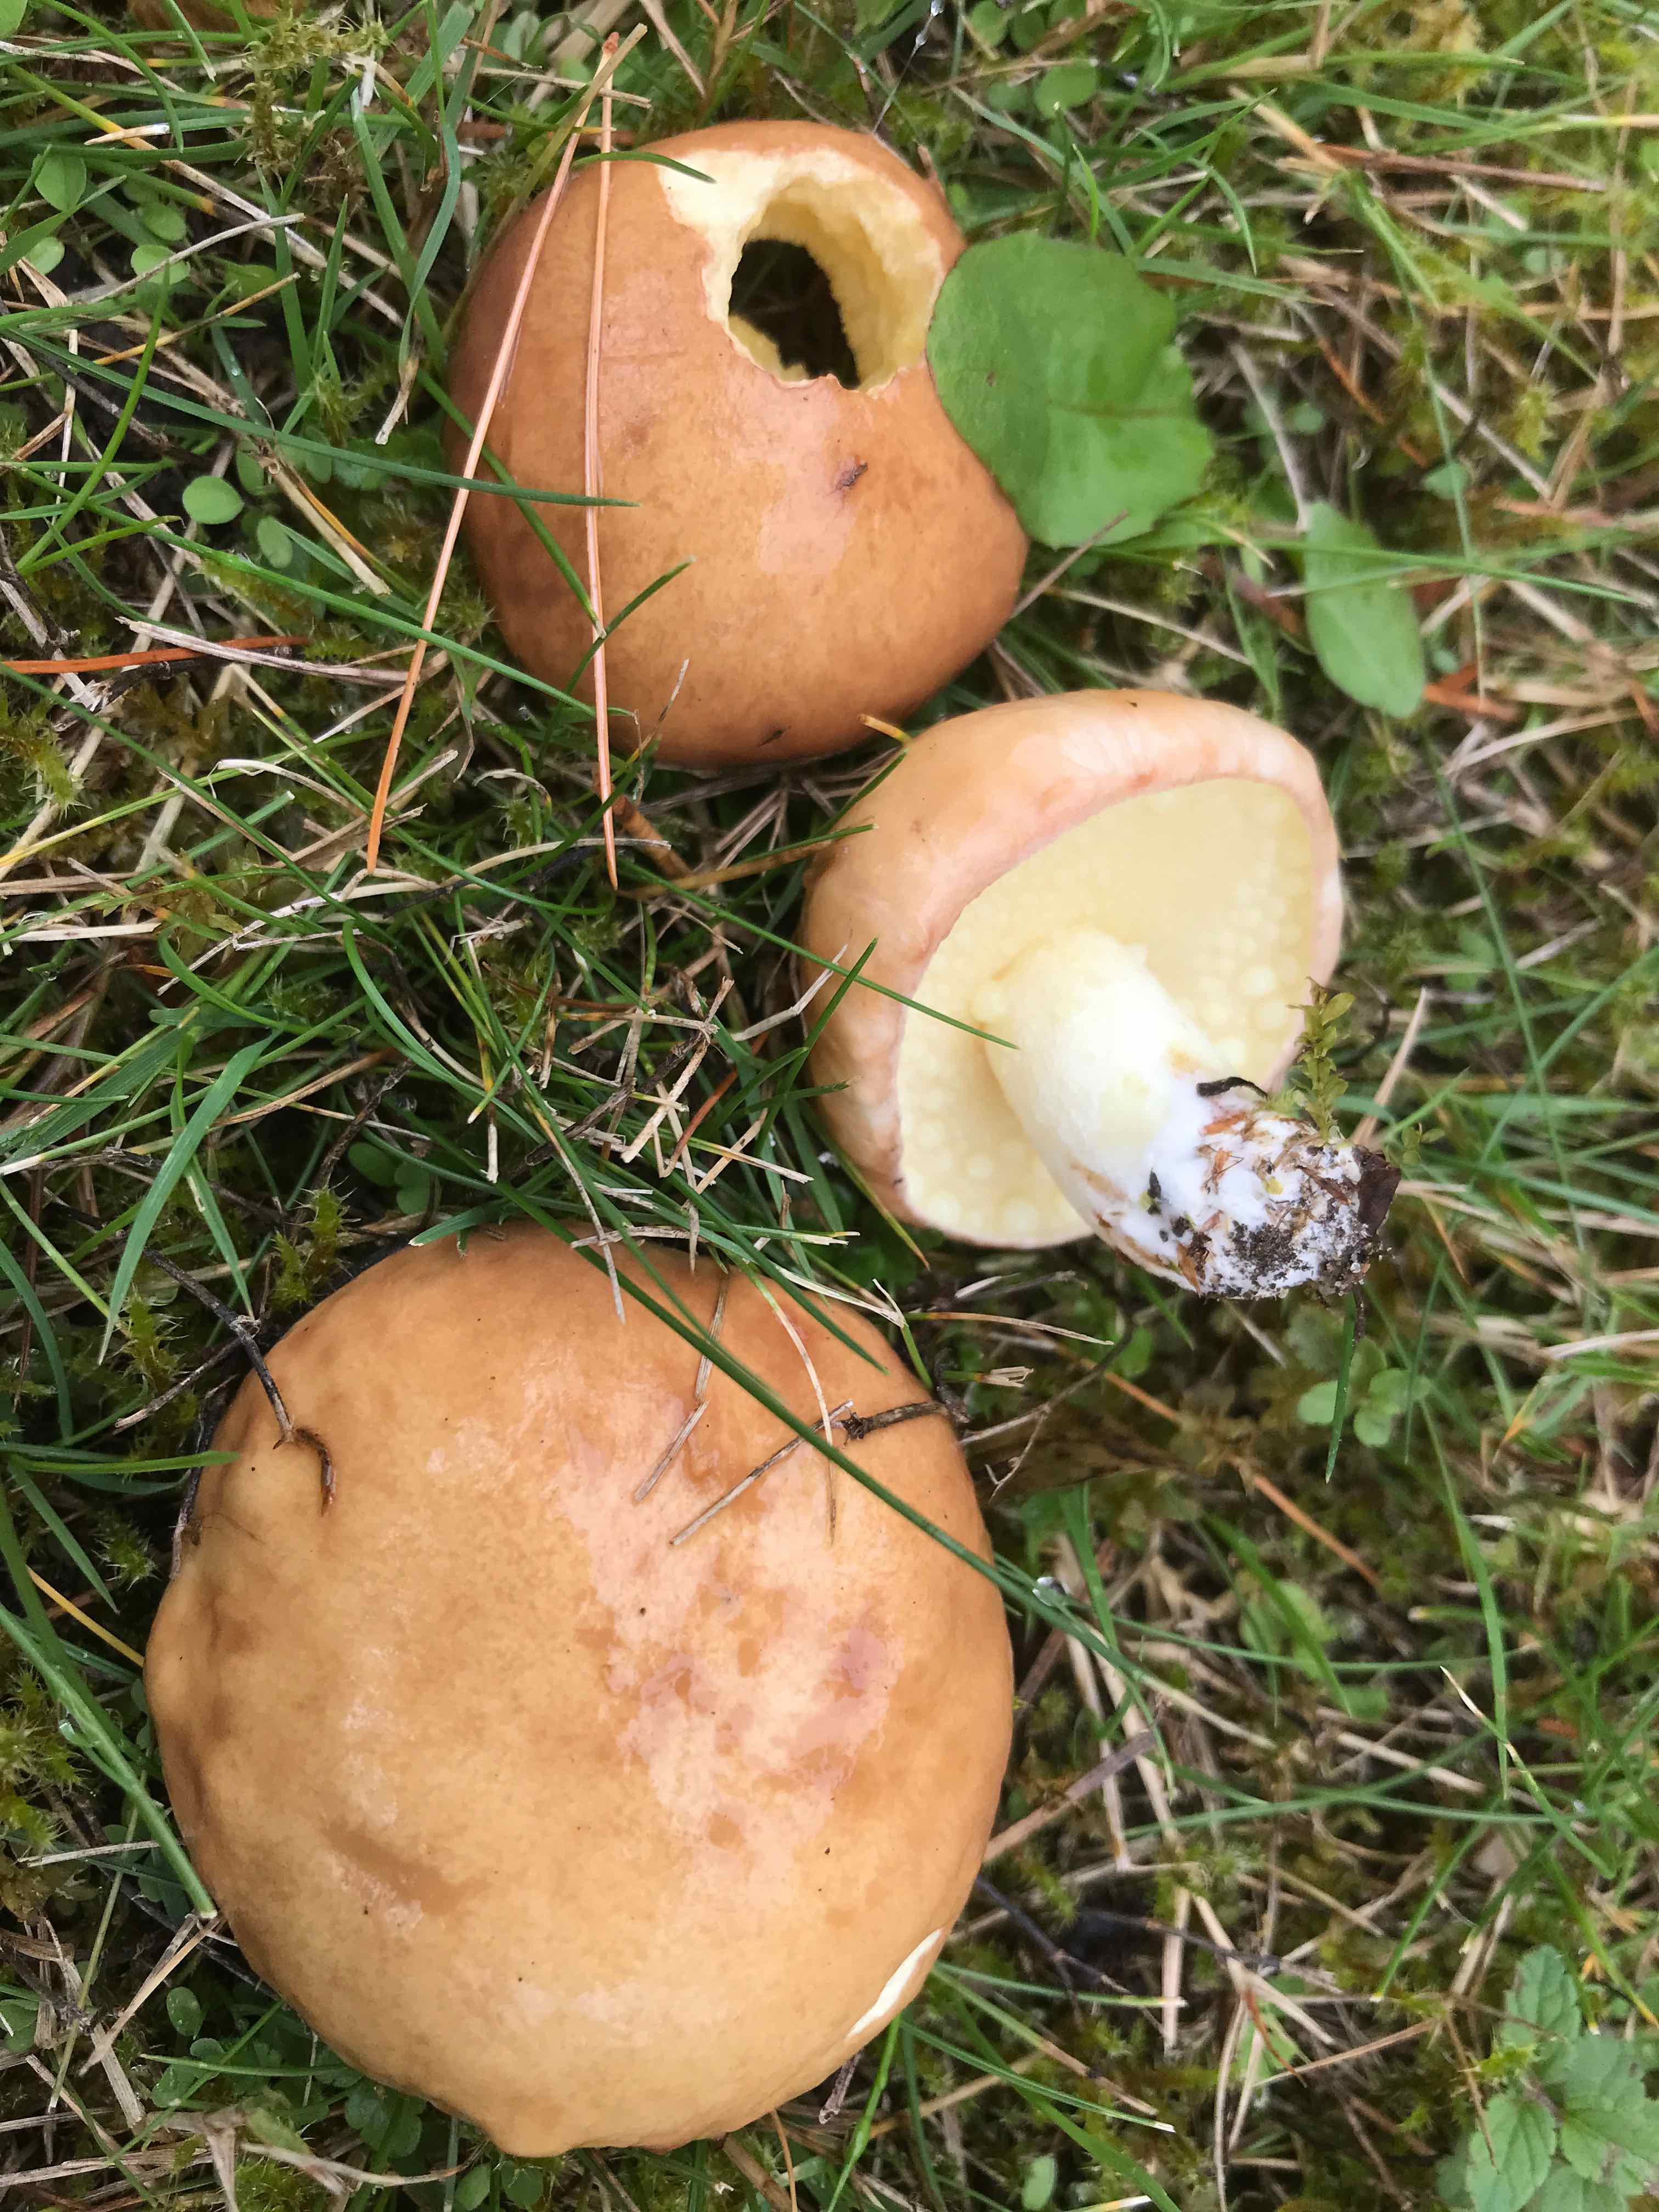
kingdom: Fungi
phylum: Basidiomycota
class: Agaricomycetes
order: Boletales
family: Suillaceae
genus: Suillus
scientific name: Suillus granulatus
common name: kornet slimrørhat
